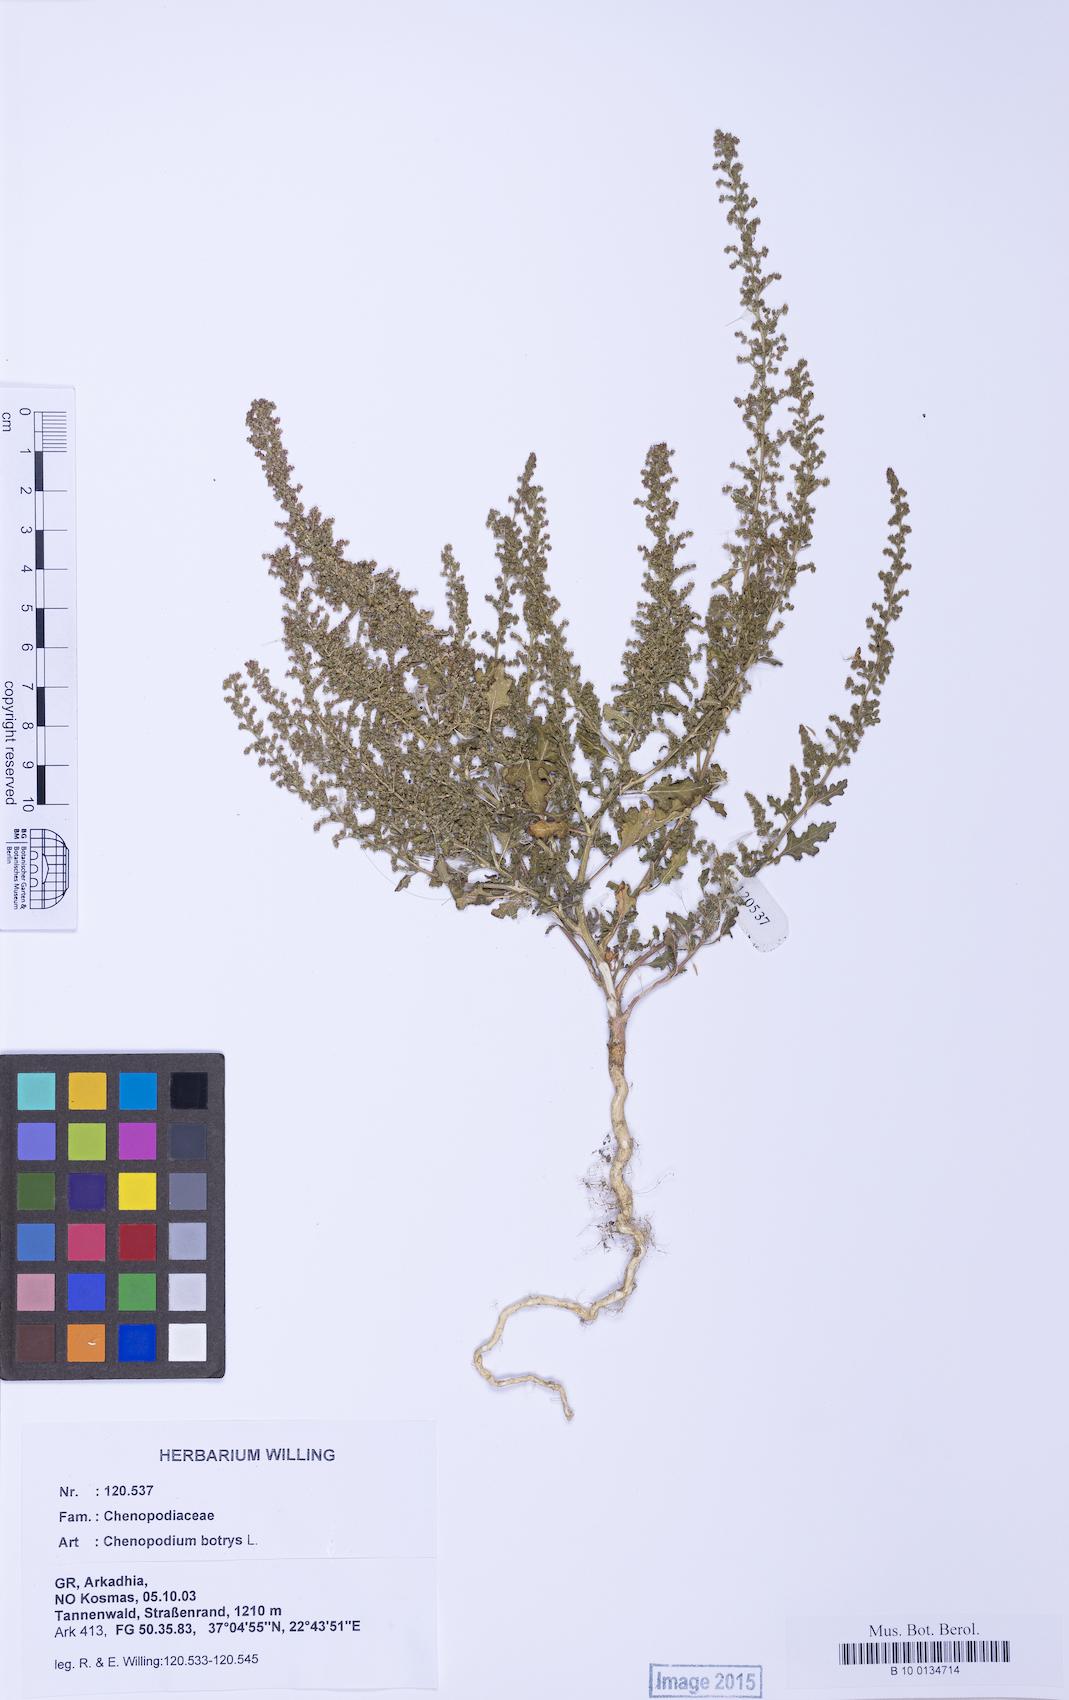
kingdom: Plantae
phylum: Tracheophyta
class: Magnoliopsida
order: Caryophyllales
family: Amaranthaceae
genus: Dysphania
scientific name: Dysphania botrys
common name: Feather-geranium
